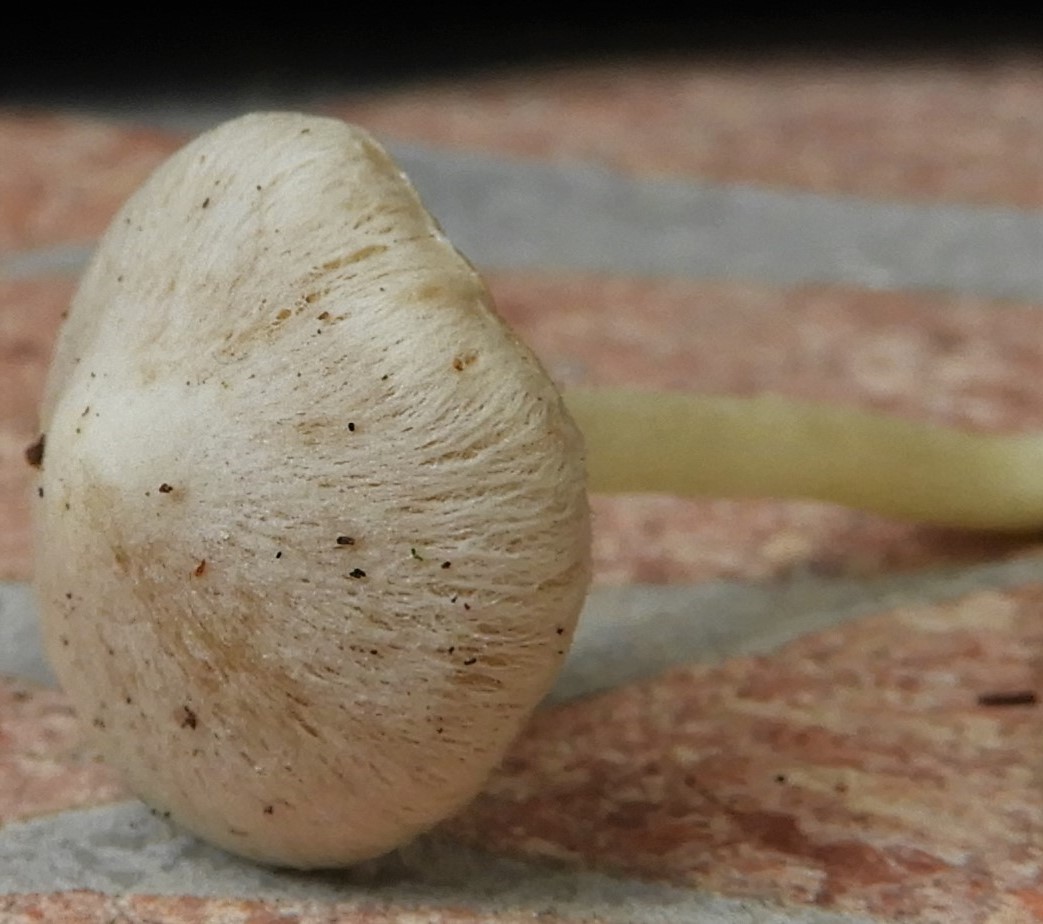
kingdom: Fungi
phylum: Basidiomycota
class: Agaricomycetes
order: Agaricales
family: Inocybaceae
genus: Inocybe
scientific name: Inocybe
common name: trævlhat
